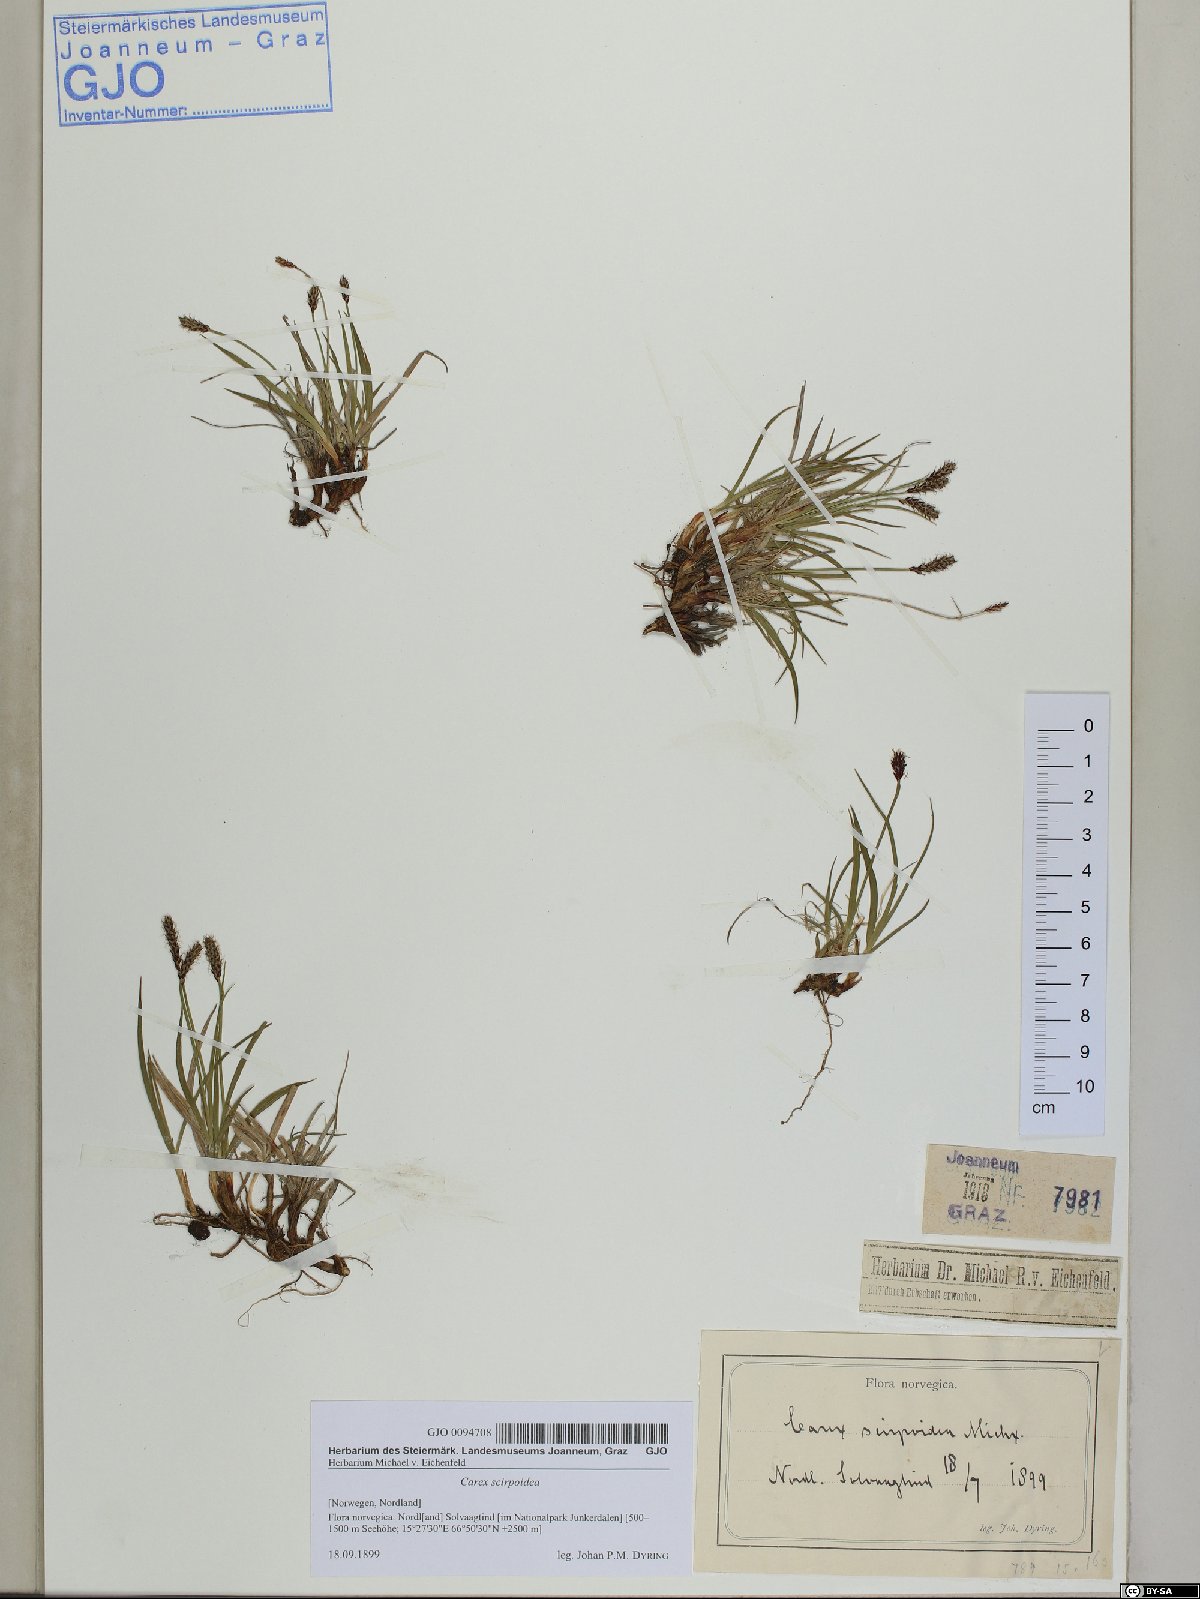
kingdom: Plantae
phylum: Tracheophyta
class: Liliopsida
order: Poales
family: Cyperaceae
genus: Carex
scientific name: Carex scirpoidea
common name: Canada single-spike sedge
